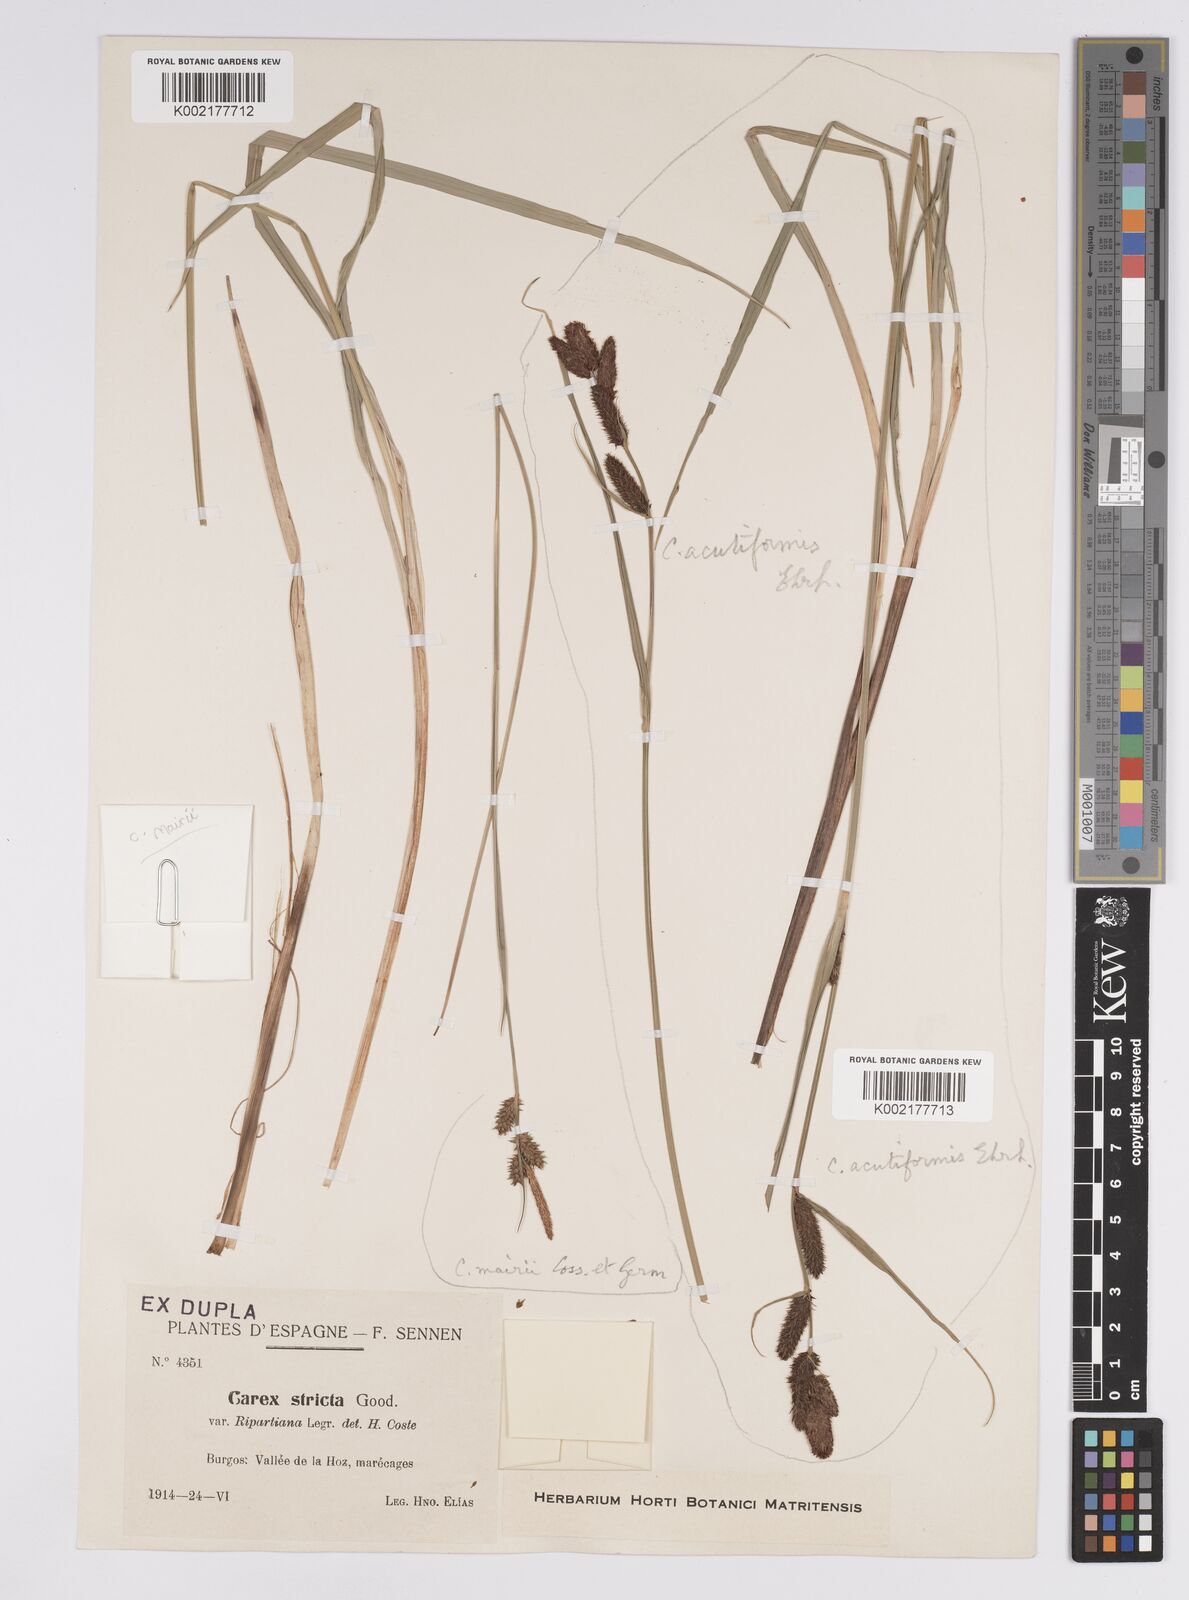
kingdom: Plantae
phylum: Tracheophyta
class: Liliopsida
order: Poales
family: Cyperaceae
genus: Carex
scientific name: Carex mairei
